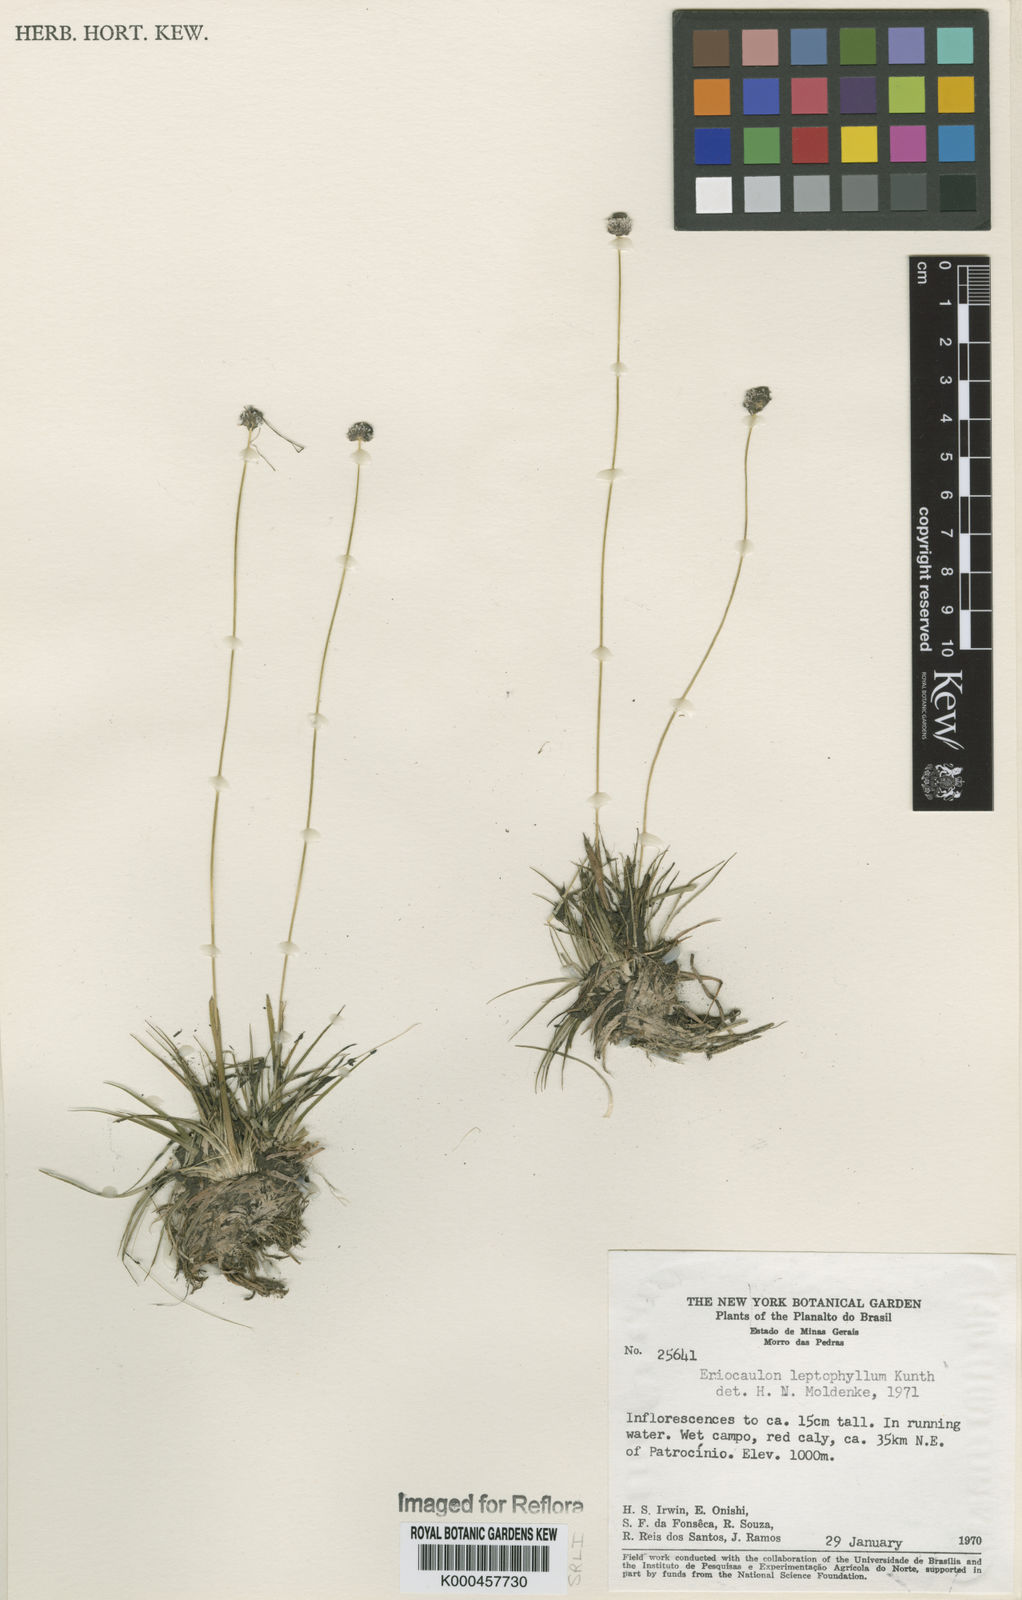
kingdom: Plantae
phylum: Tracheophyta
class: Liliopsida
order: Poales
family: Eriocaulaceae
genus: Eriocaulon
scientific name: Eriocaulon leptophyllum
